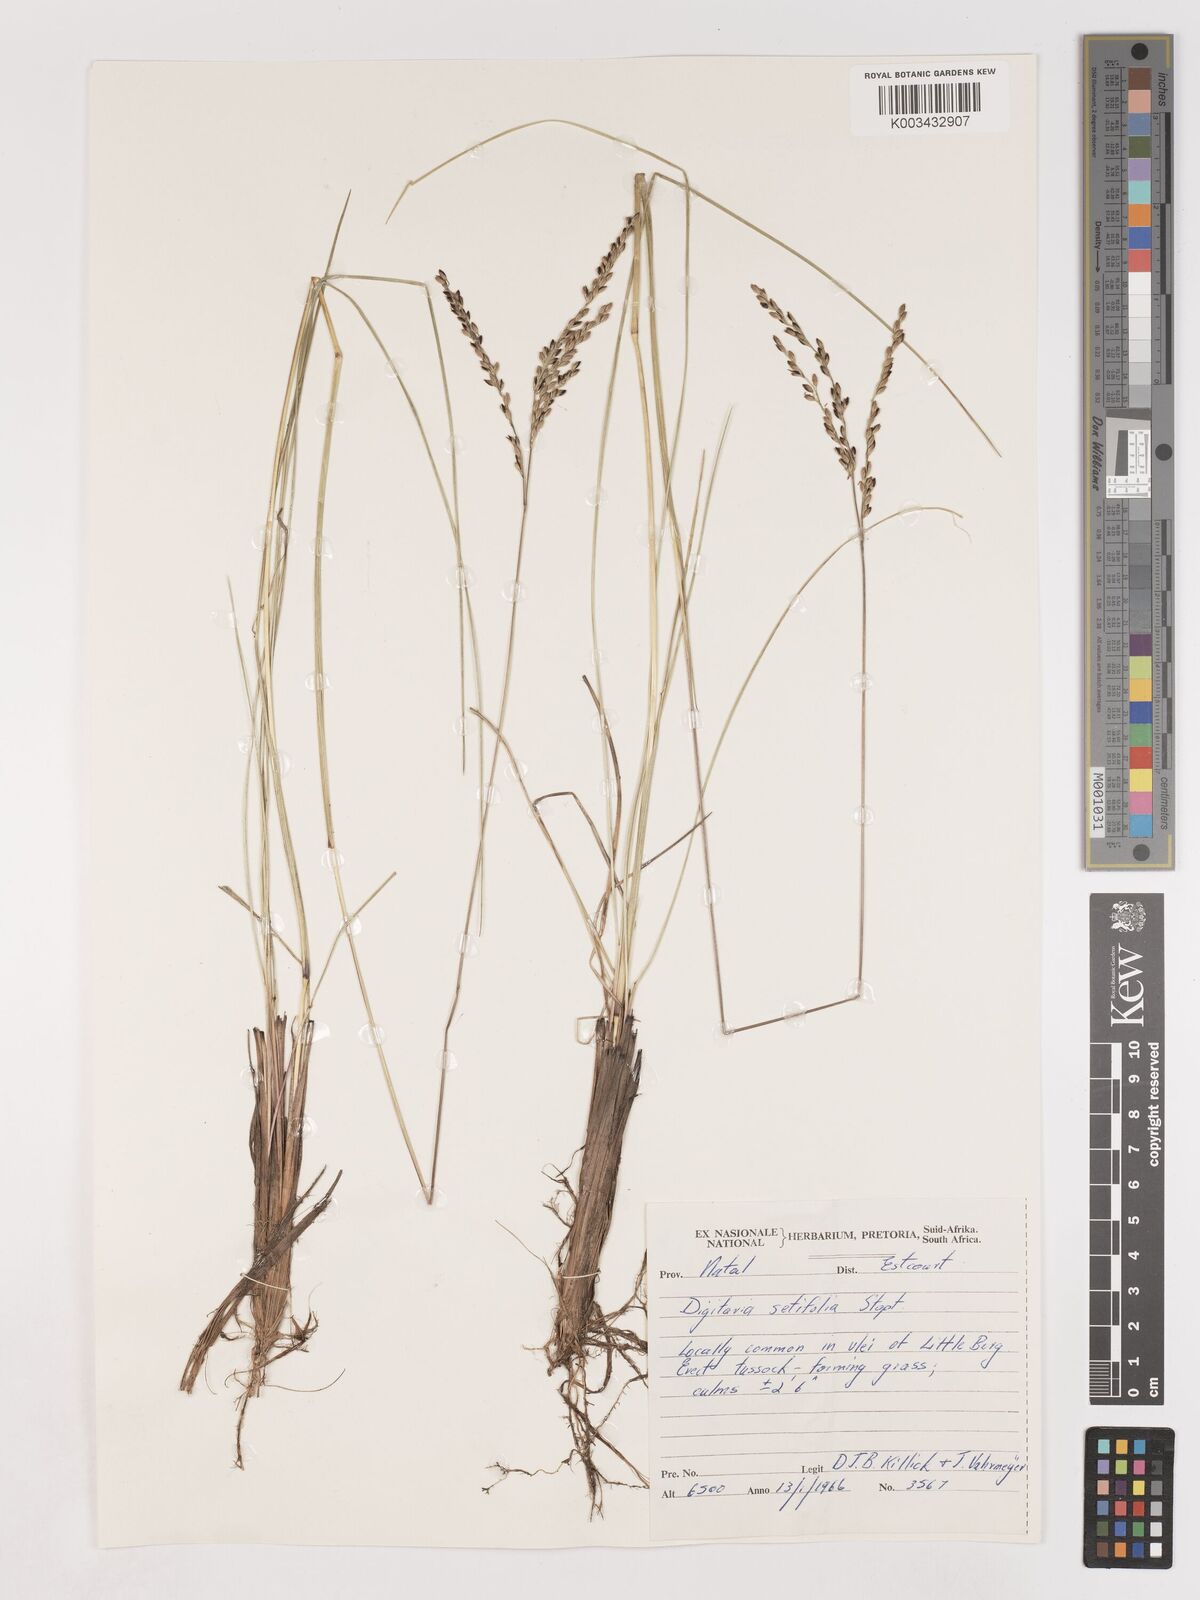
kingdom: Plantae
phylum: Tracheophyta
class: Liliopsida
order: Poales
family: Poaceae
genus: Digitaria
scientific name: Digitaria setifolia
